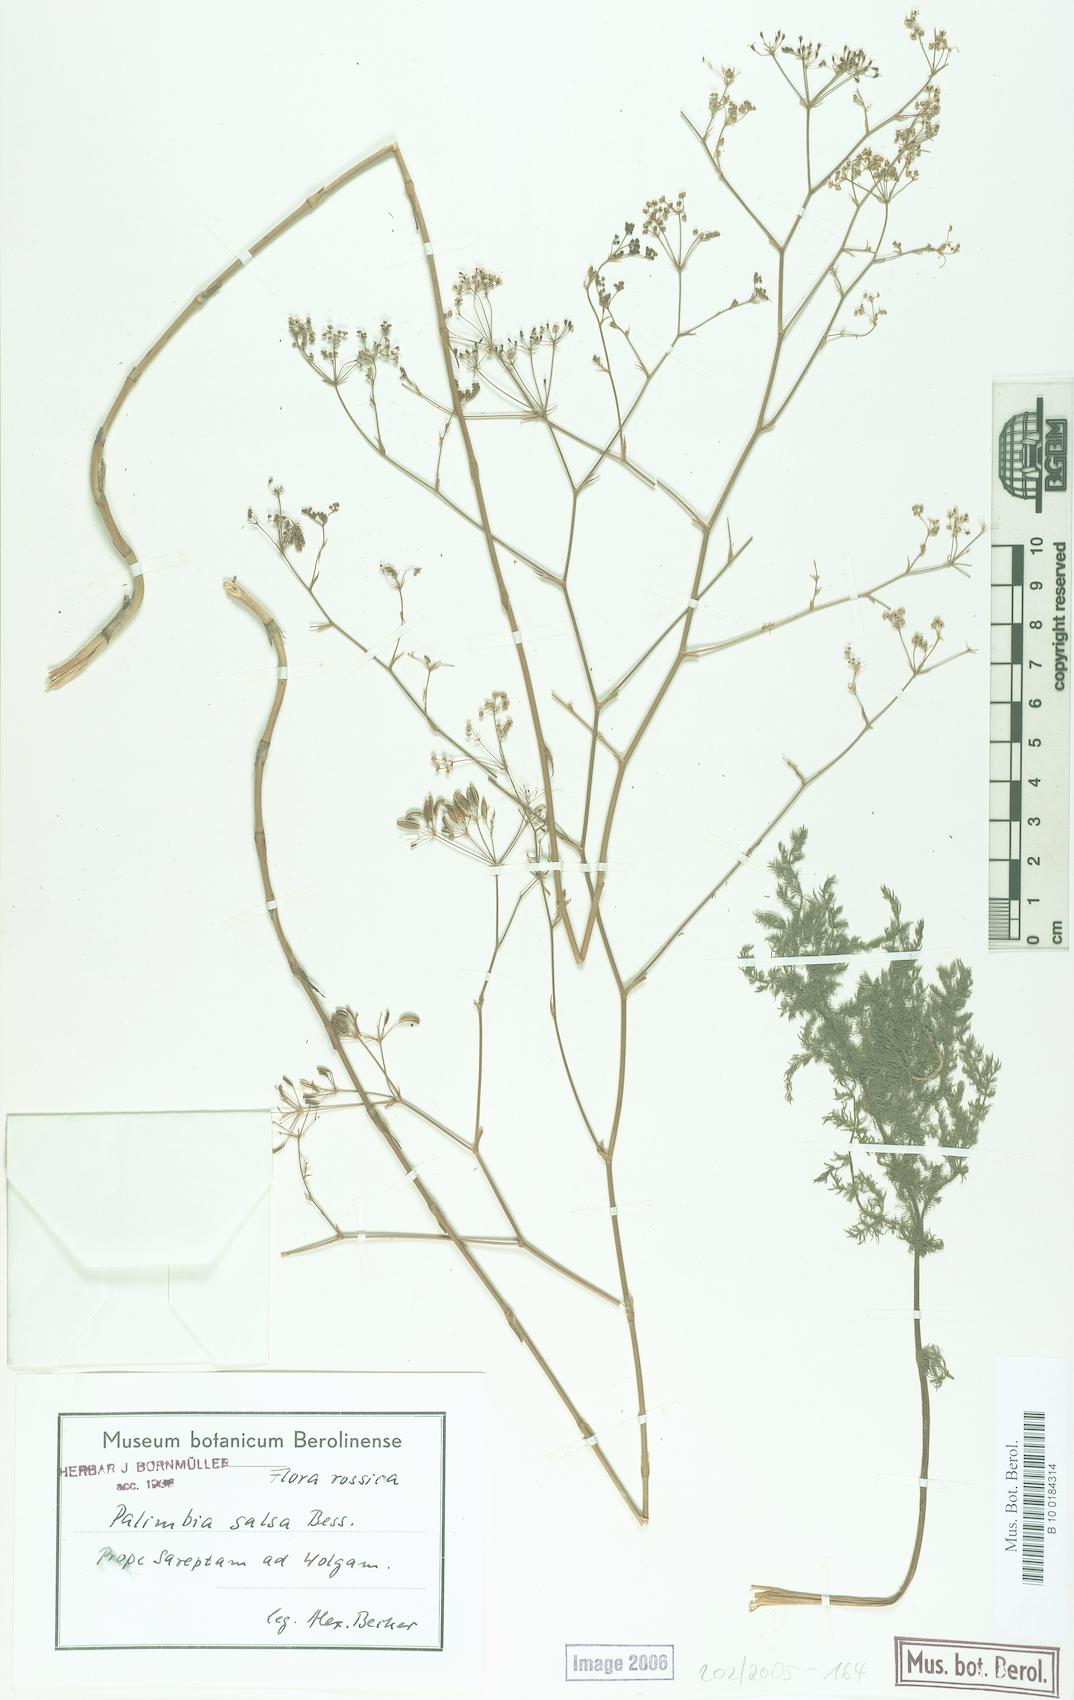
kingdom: Plantae
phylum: Tracheophyta
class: Magnoliopsida
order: Apiales
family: Apiaceae
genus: Palimbia
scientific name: Palimbia rediviva
